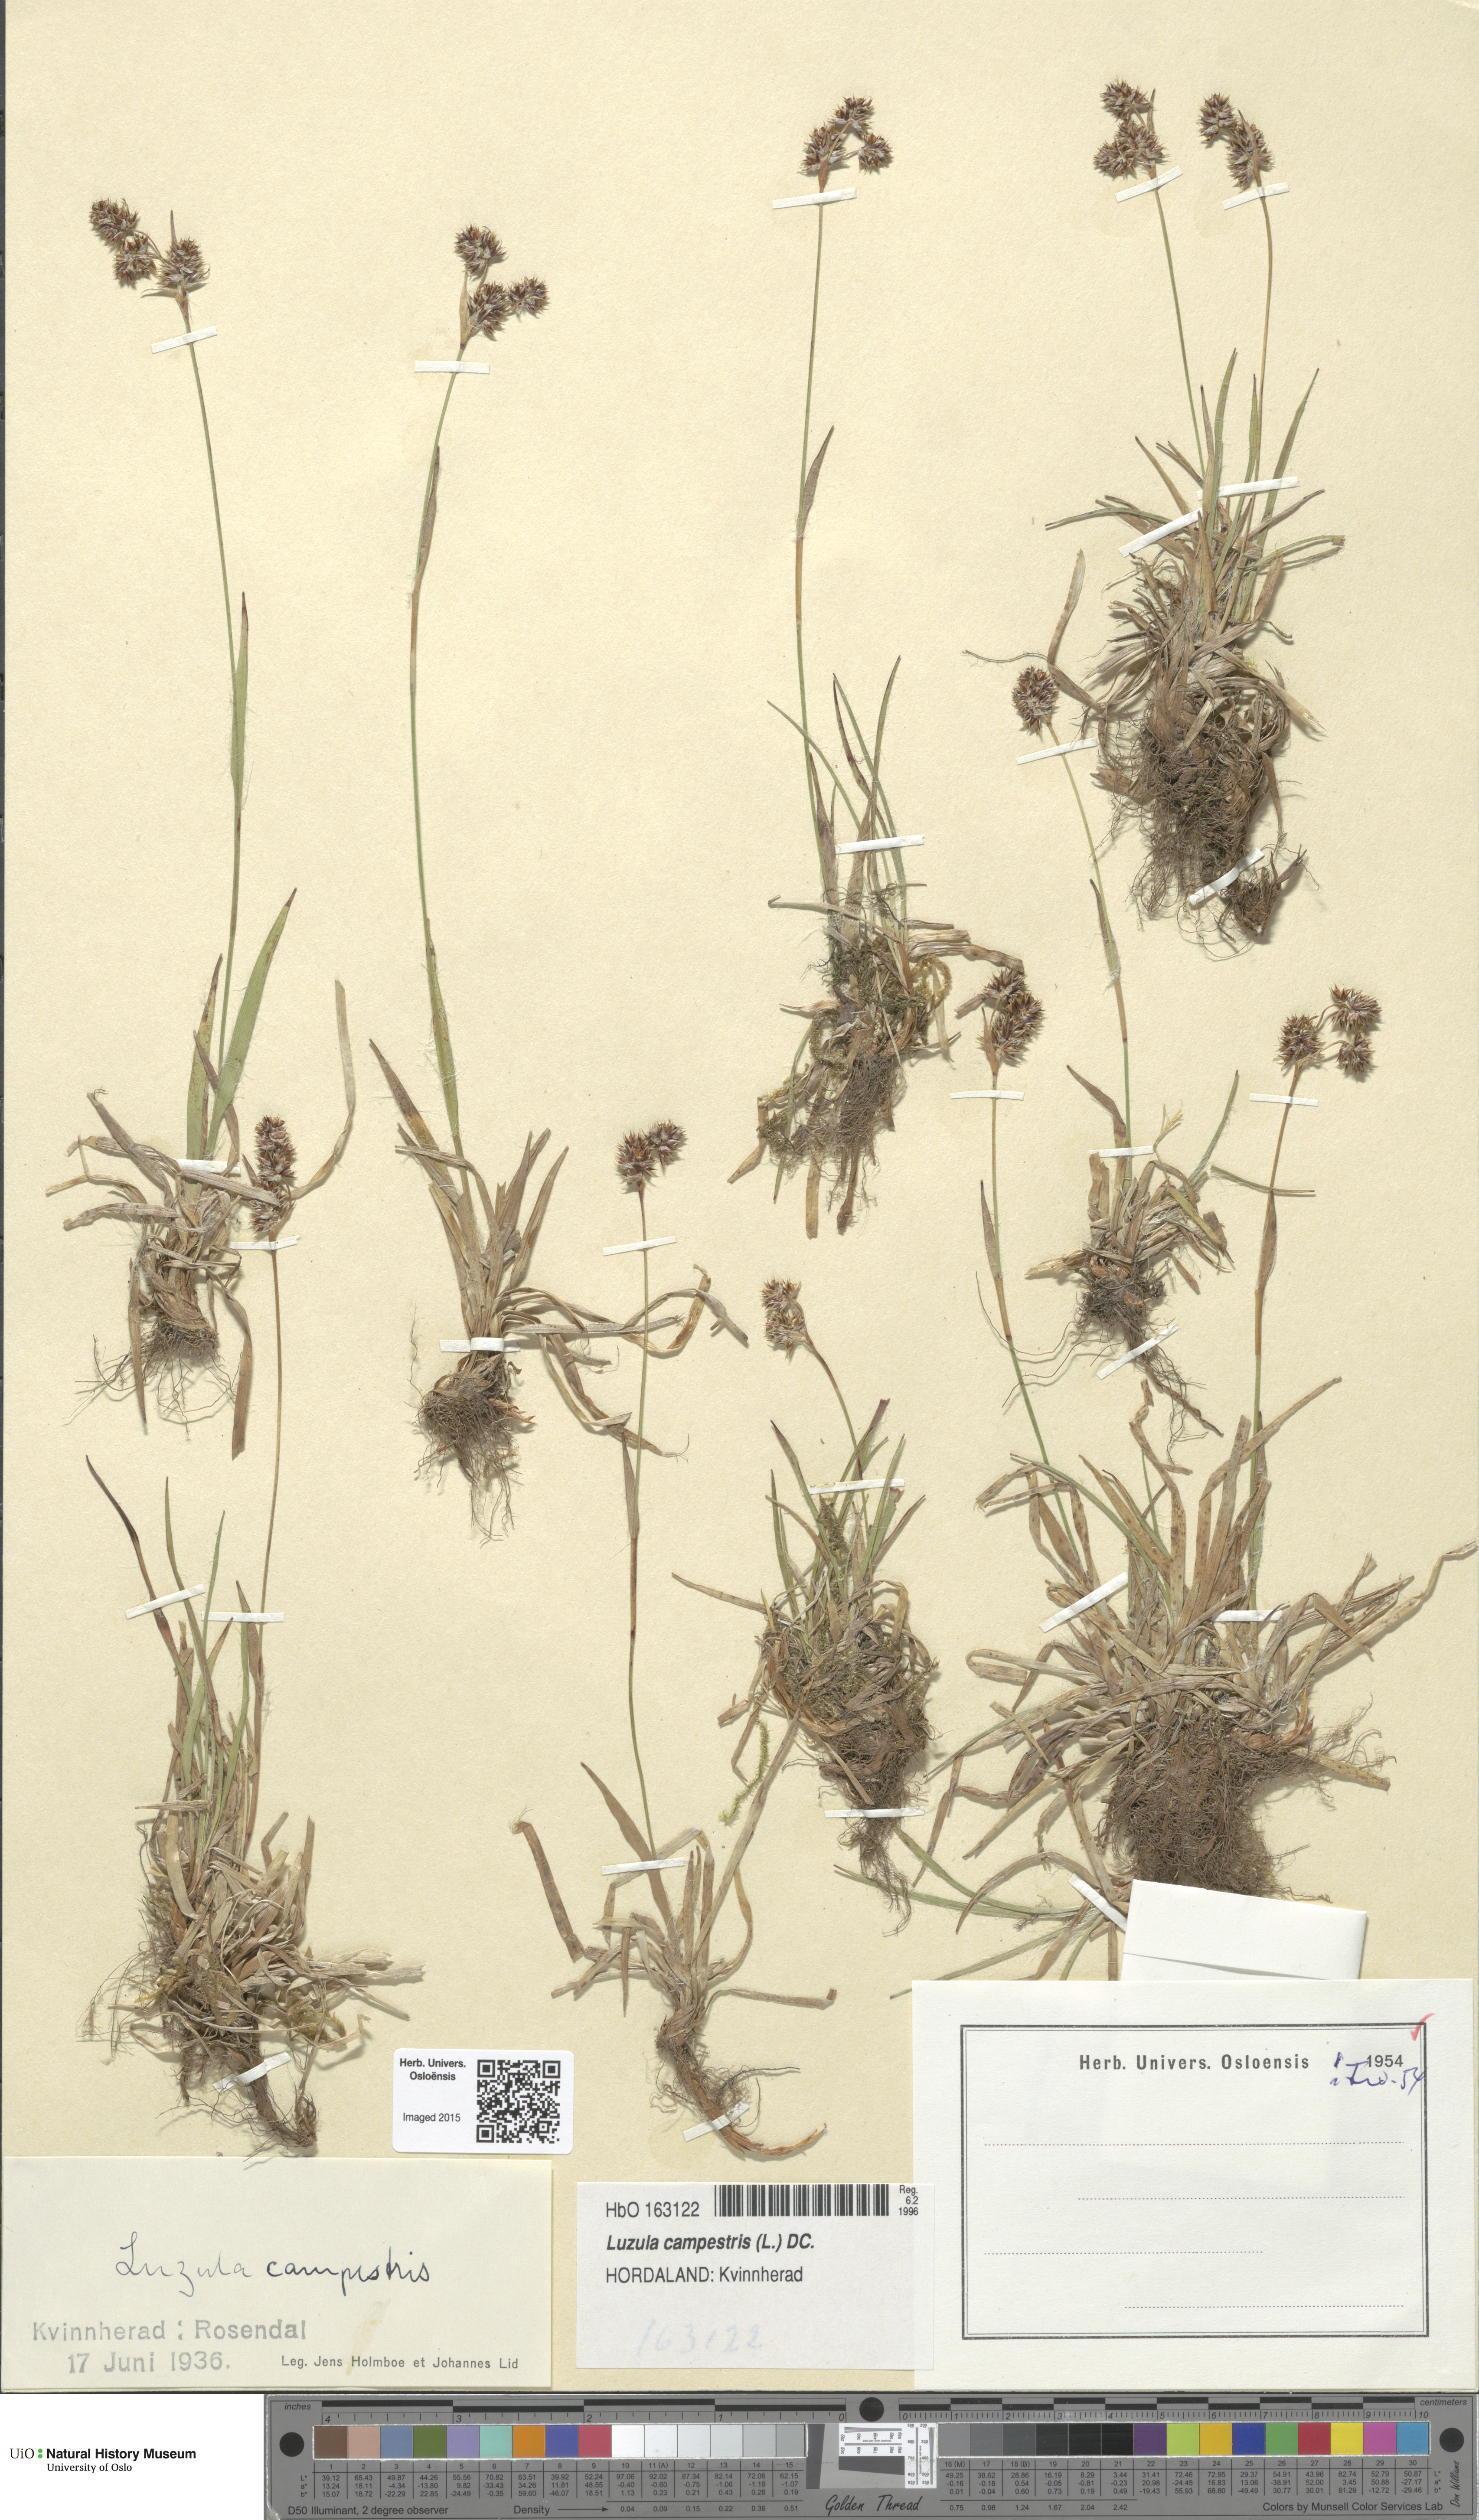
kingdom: Plantae
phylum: Tracheophyta
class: Liliopsida
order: Poales
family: Juncaceae
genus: Luzula
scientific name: Luzula campestris
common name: Field wood-rush
